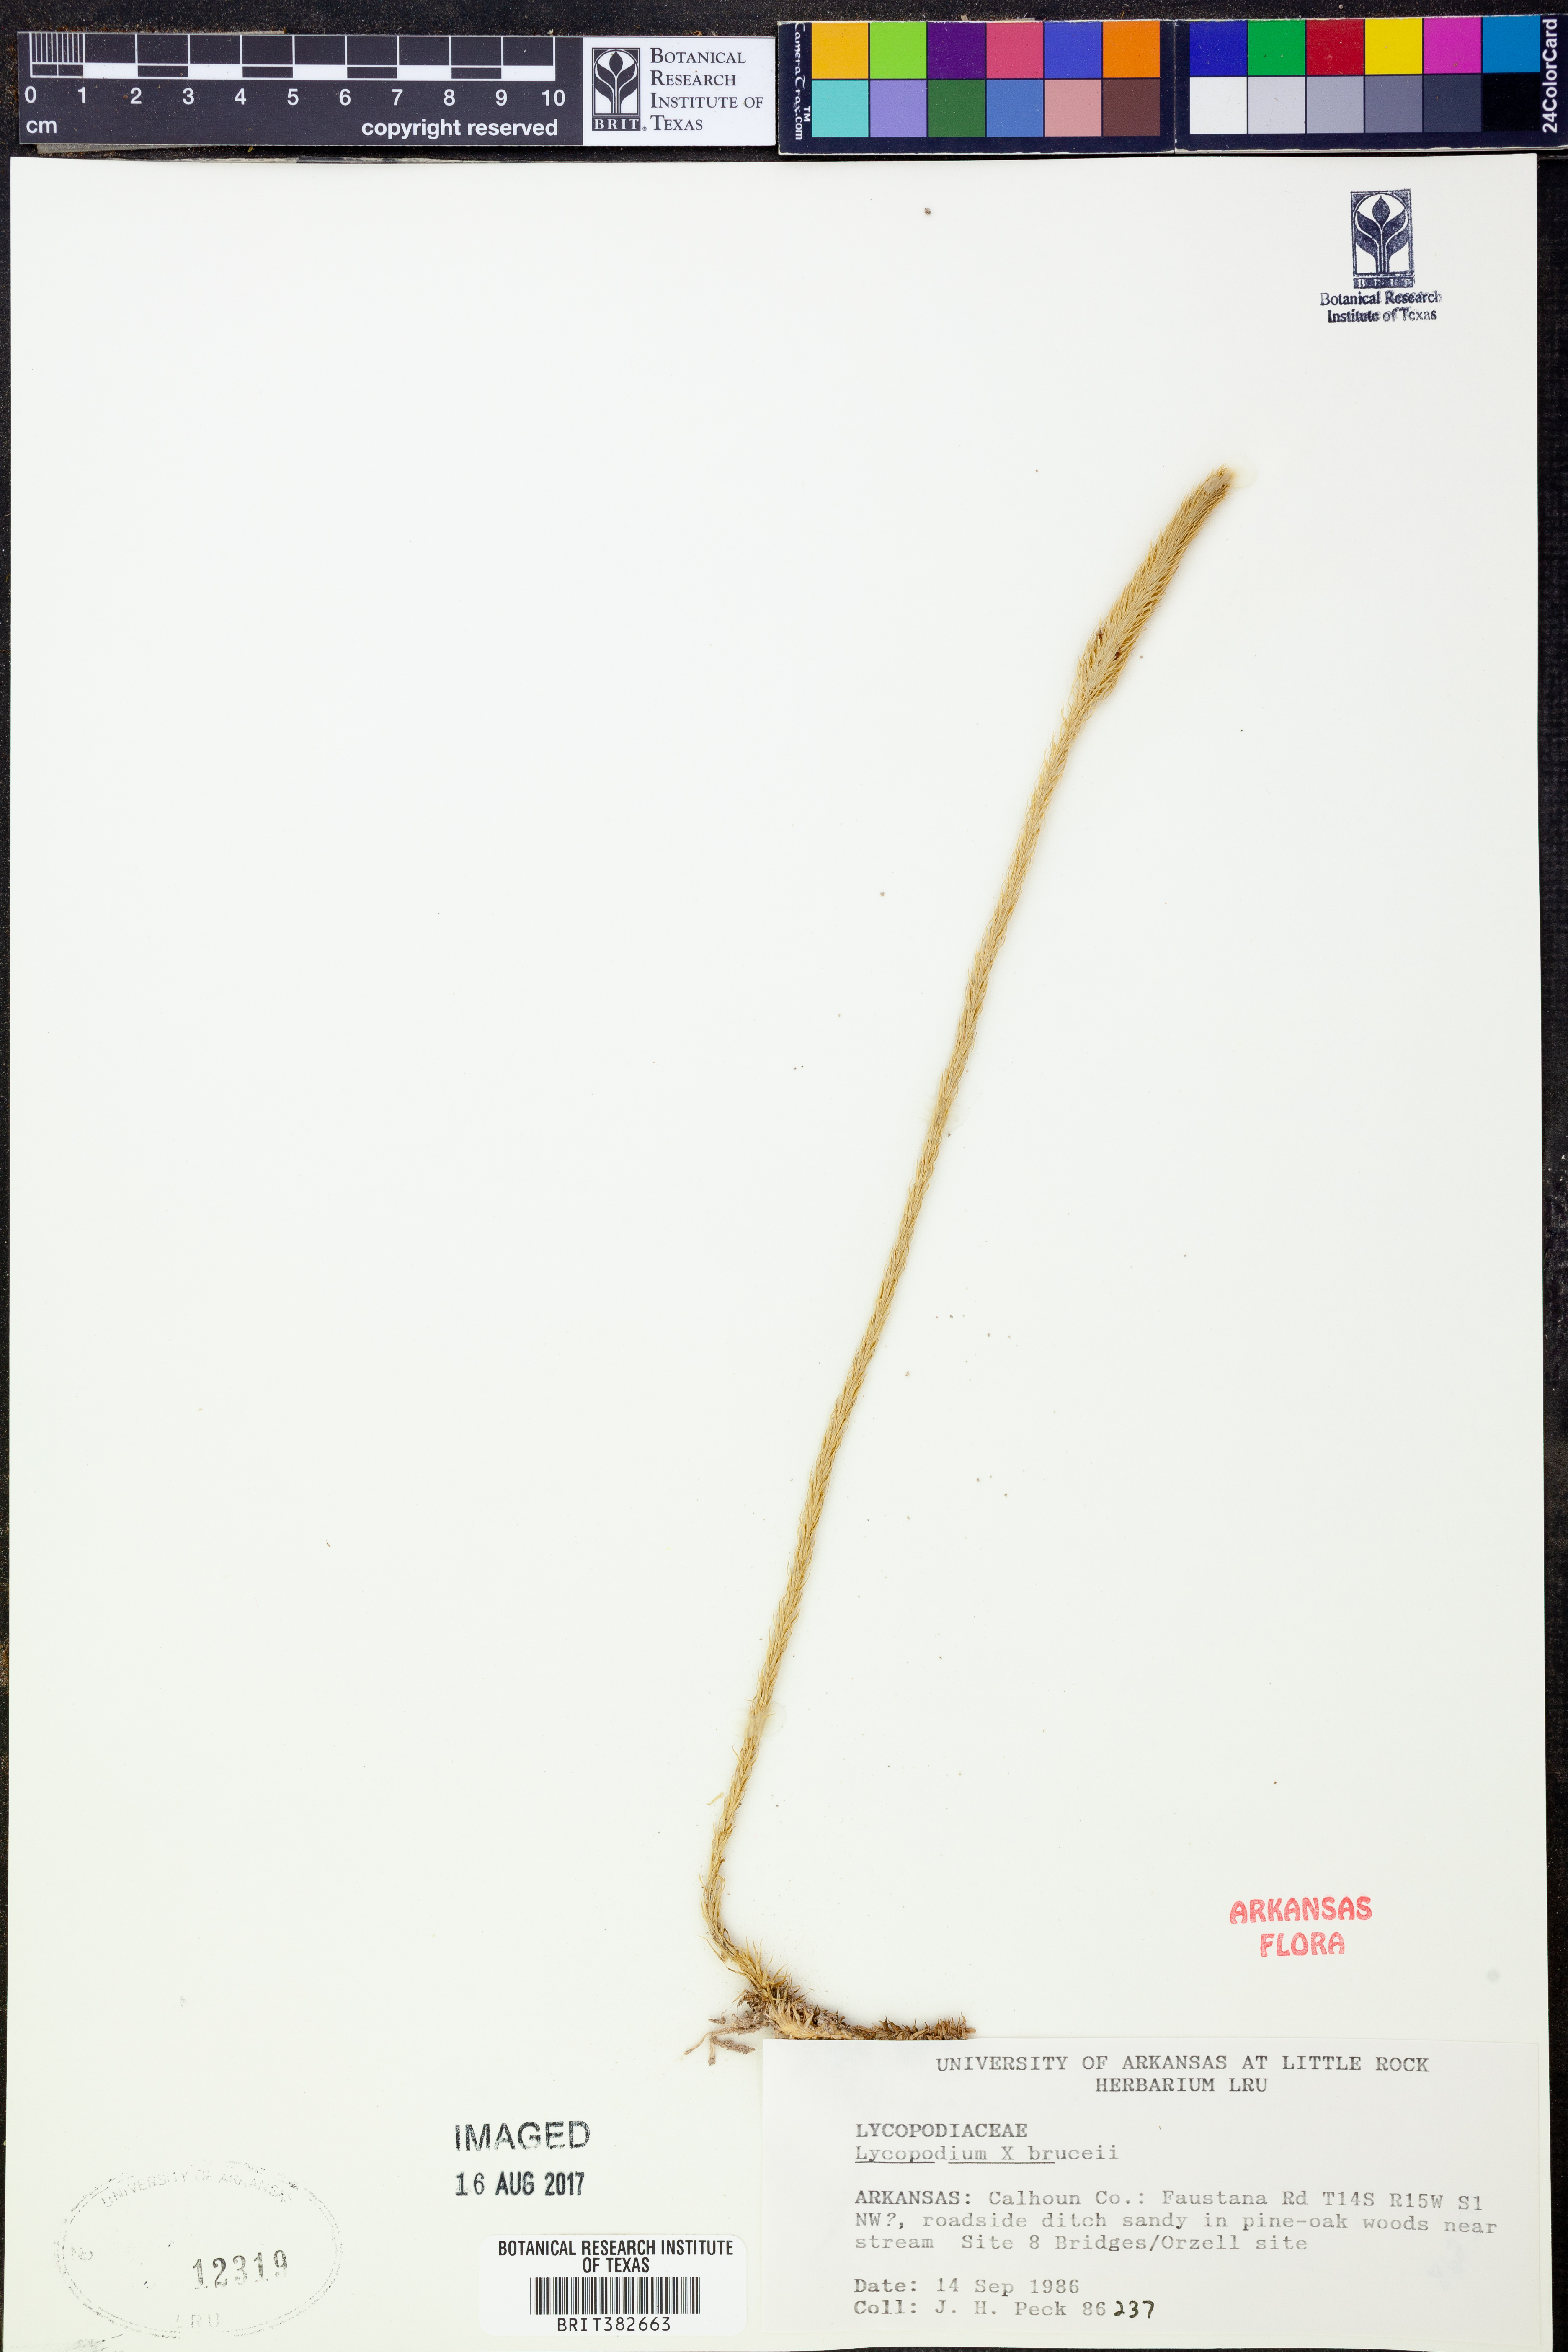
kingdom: Plantae
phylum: Tracheophyta
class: Lycopodiopsida
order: Lycopodiales
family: Lycopodiaceae
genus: Lycopodiella
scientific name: Lycopodiella brucei
